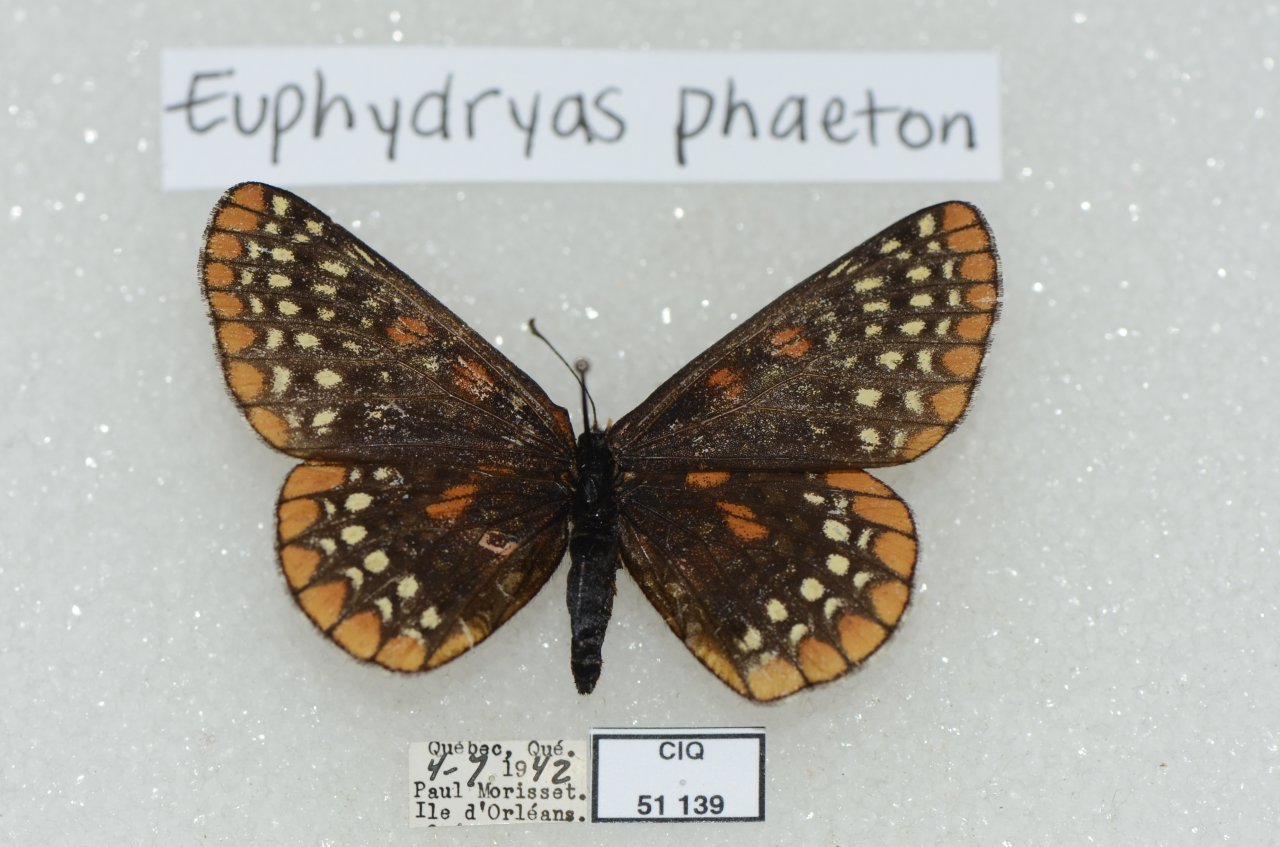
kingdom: Animalia
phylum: Arthropoda
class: Insecta
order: Lepidoptera
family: Nymphalidae
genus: Euphydryas
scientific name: Euphydryas phaeton
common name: Baltimore Checkerspot
